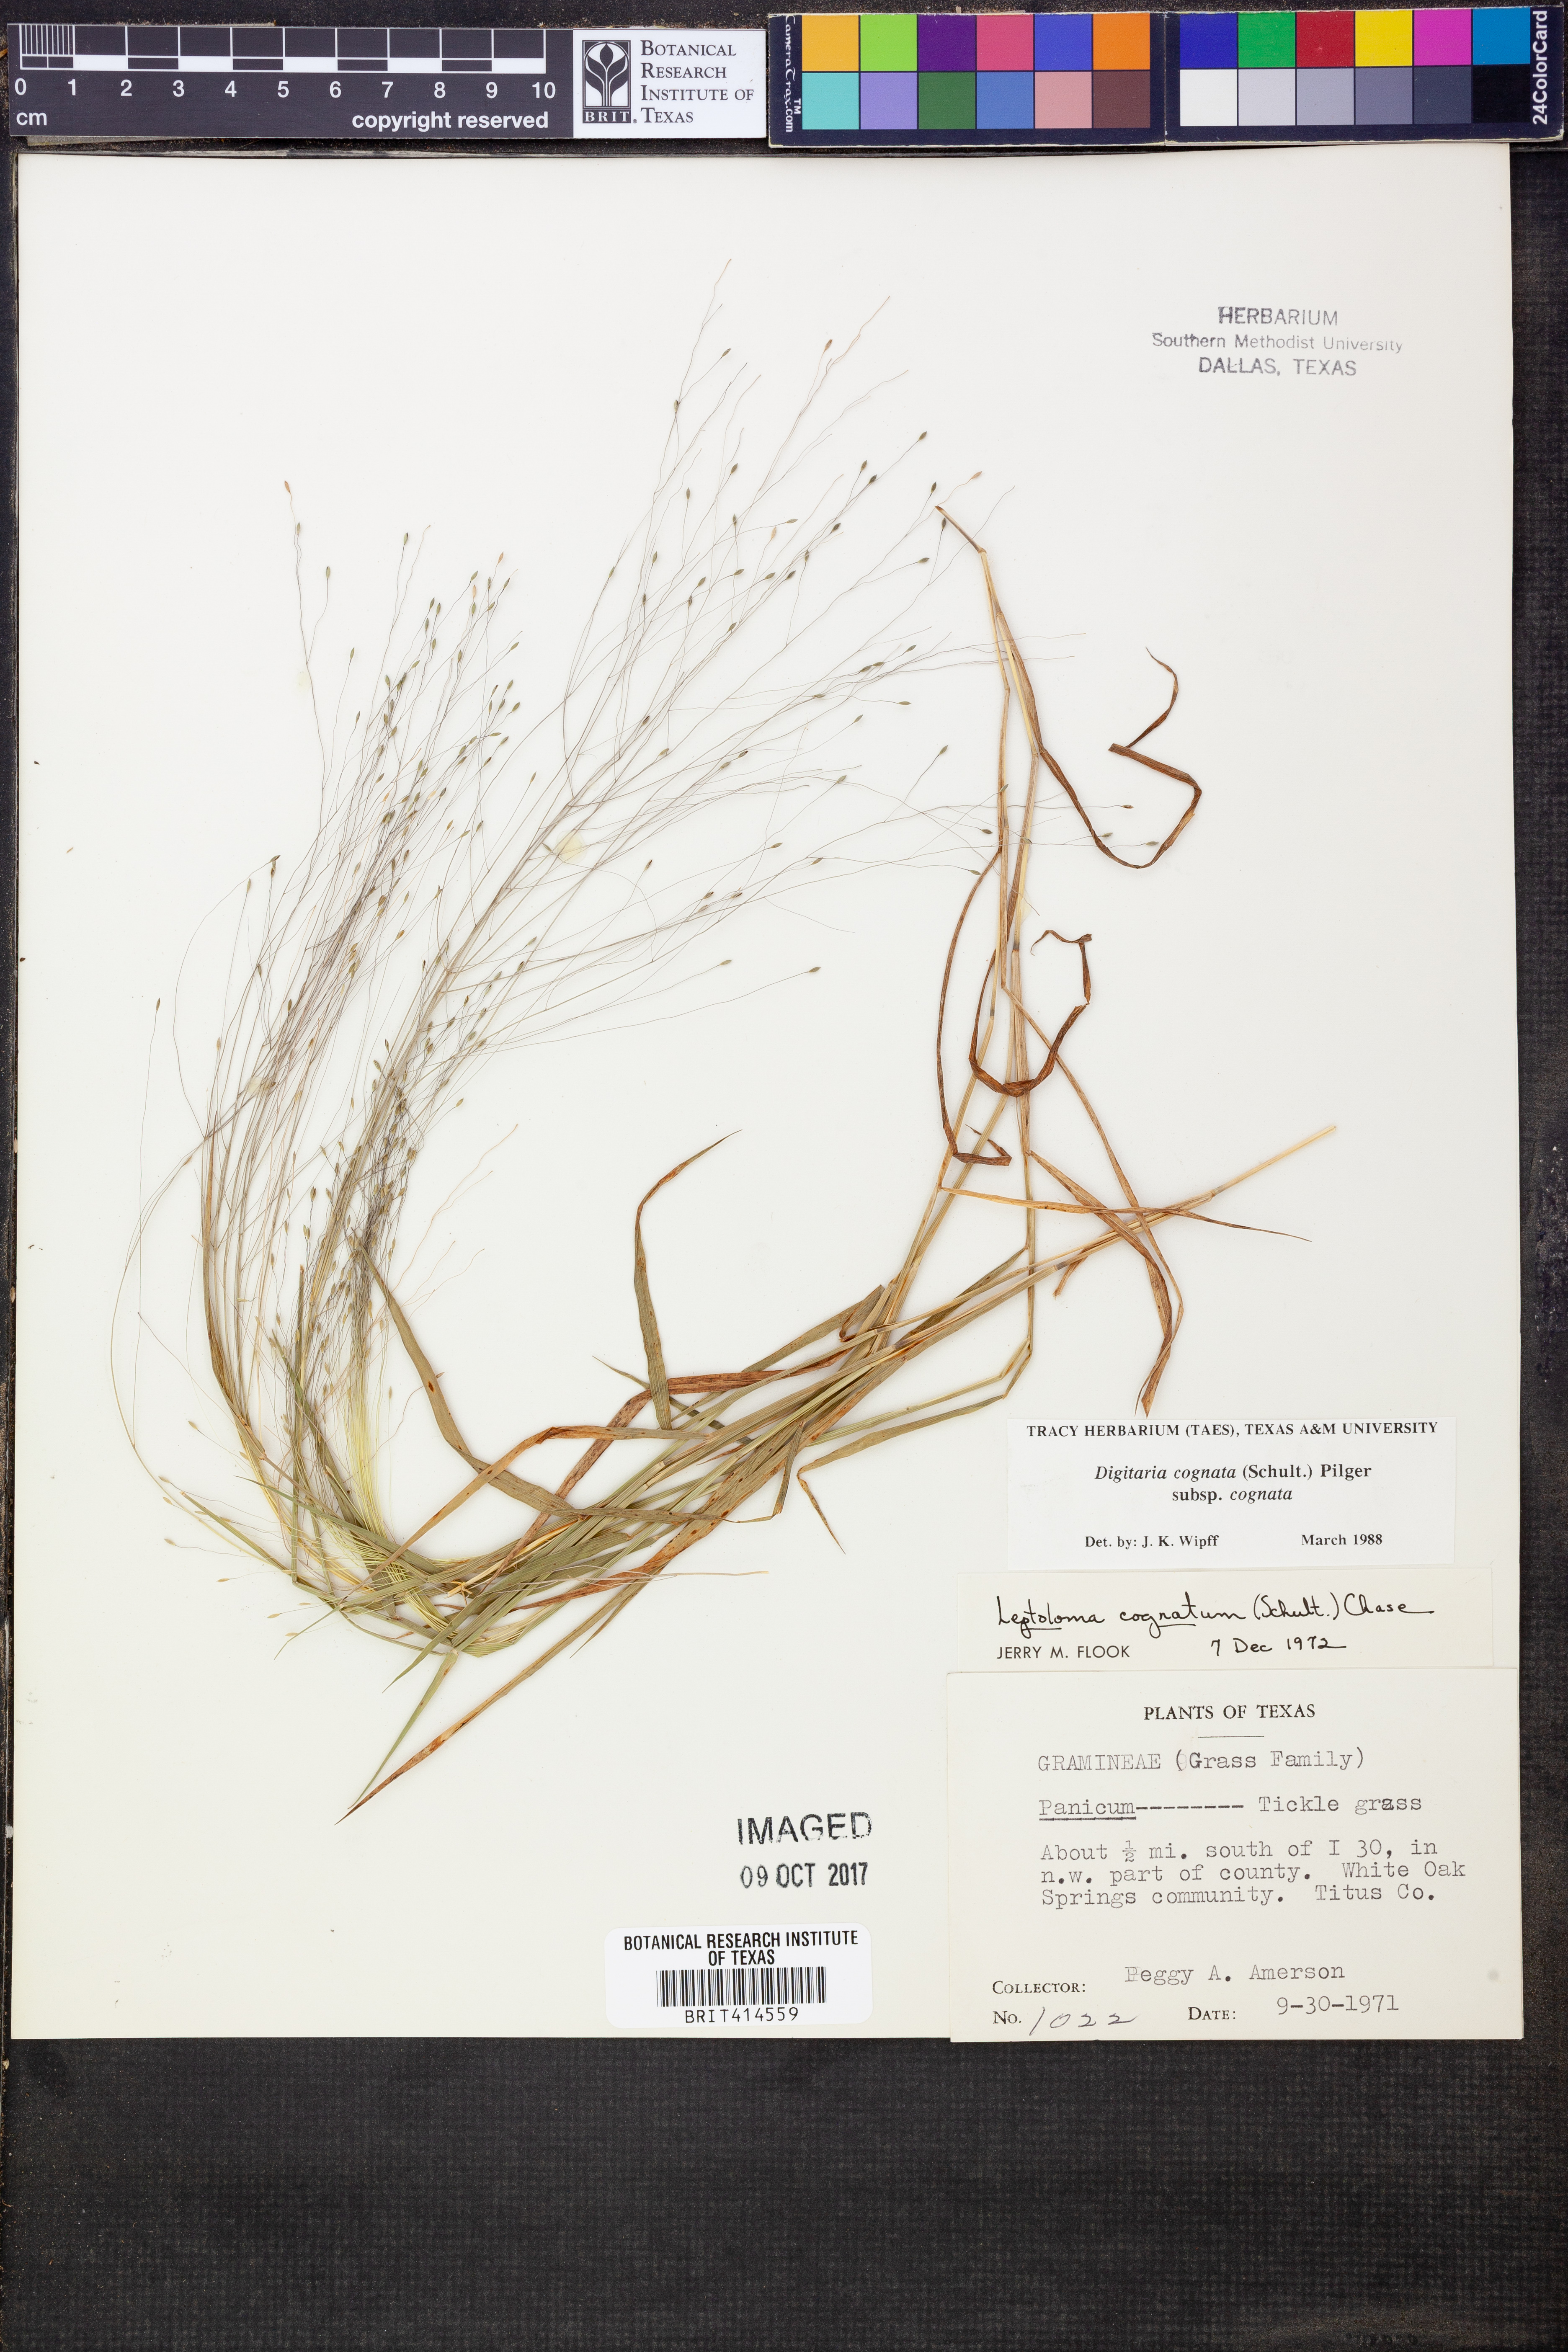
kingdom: Plantae
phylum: Tracheophyta
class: Liliopsida
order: Poales
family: Poaceae
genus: Digitaria
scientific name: Digitaria cognata
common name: Fall witchgrass
